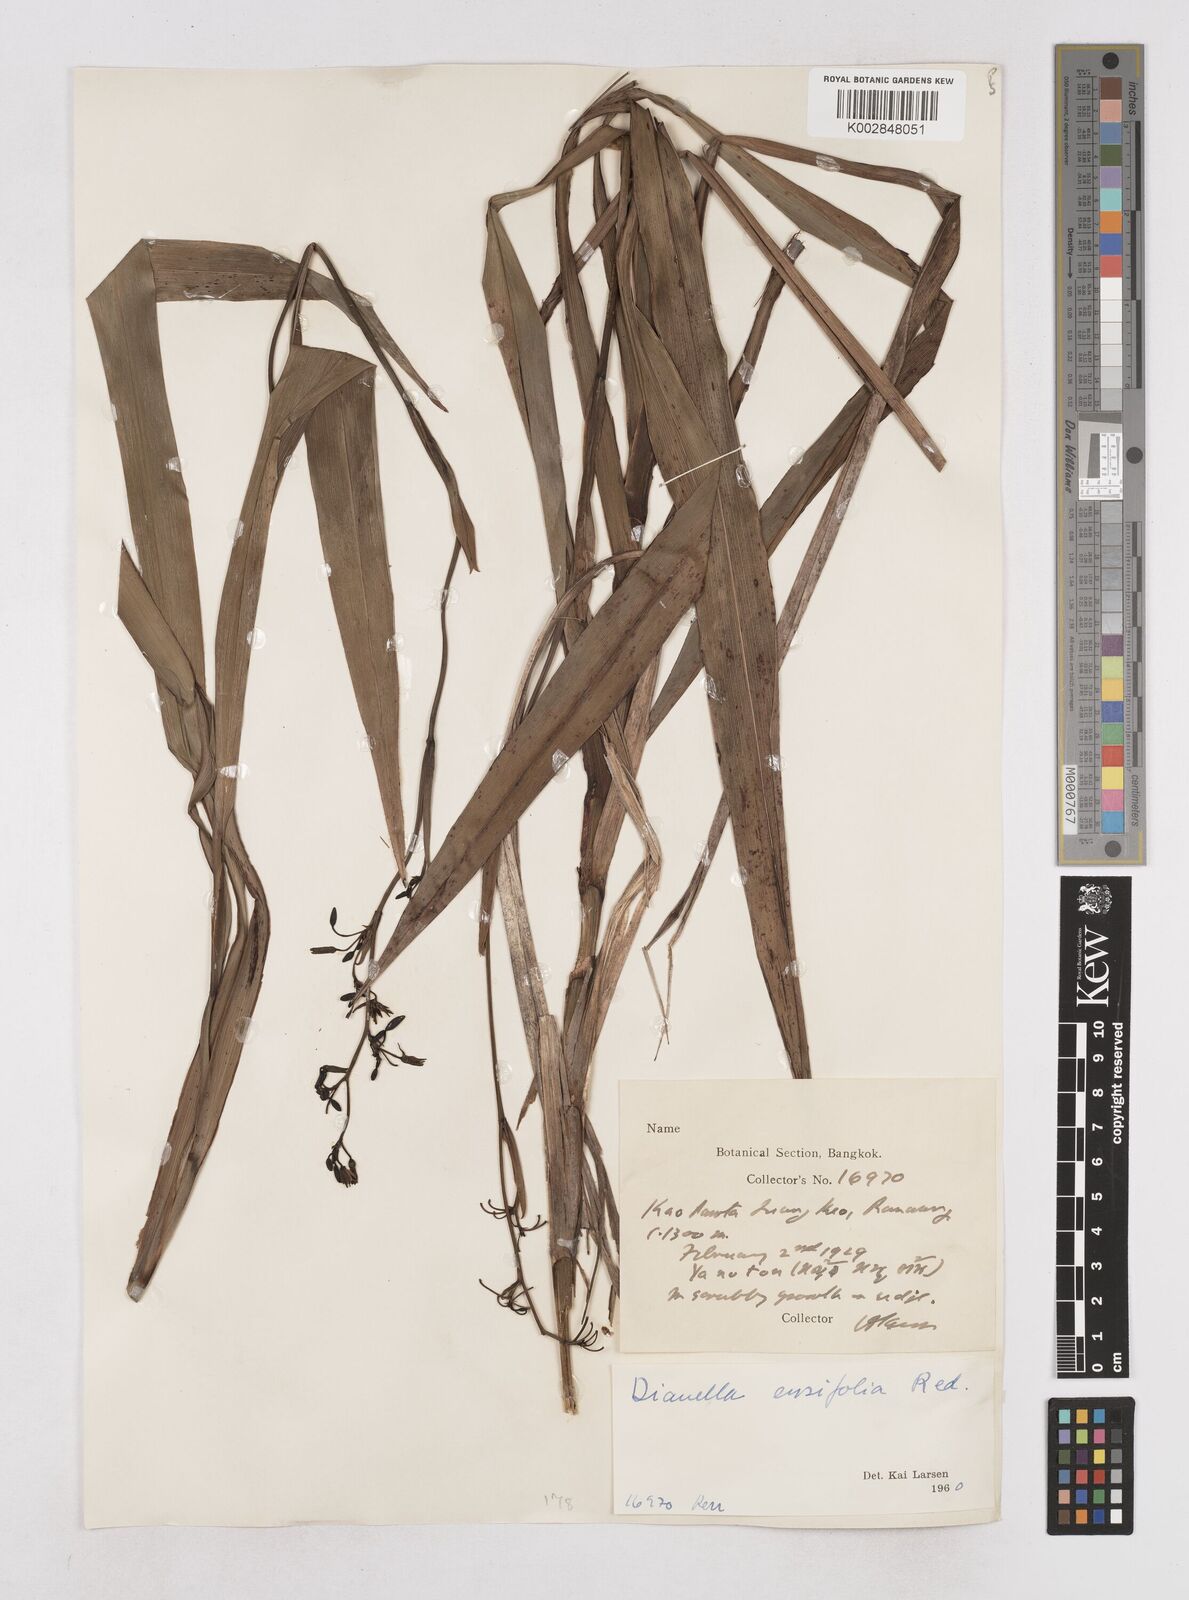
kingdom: Plantae
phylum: Tracheophyta
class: Liliopsida
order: Asparagales
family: Asphodelaceae
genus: Dianella
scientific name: Dianella ensifolia
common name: New zealand lilyplant
